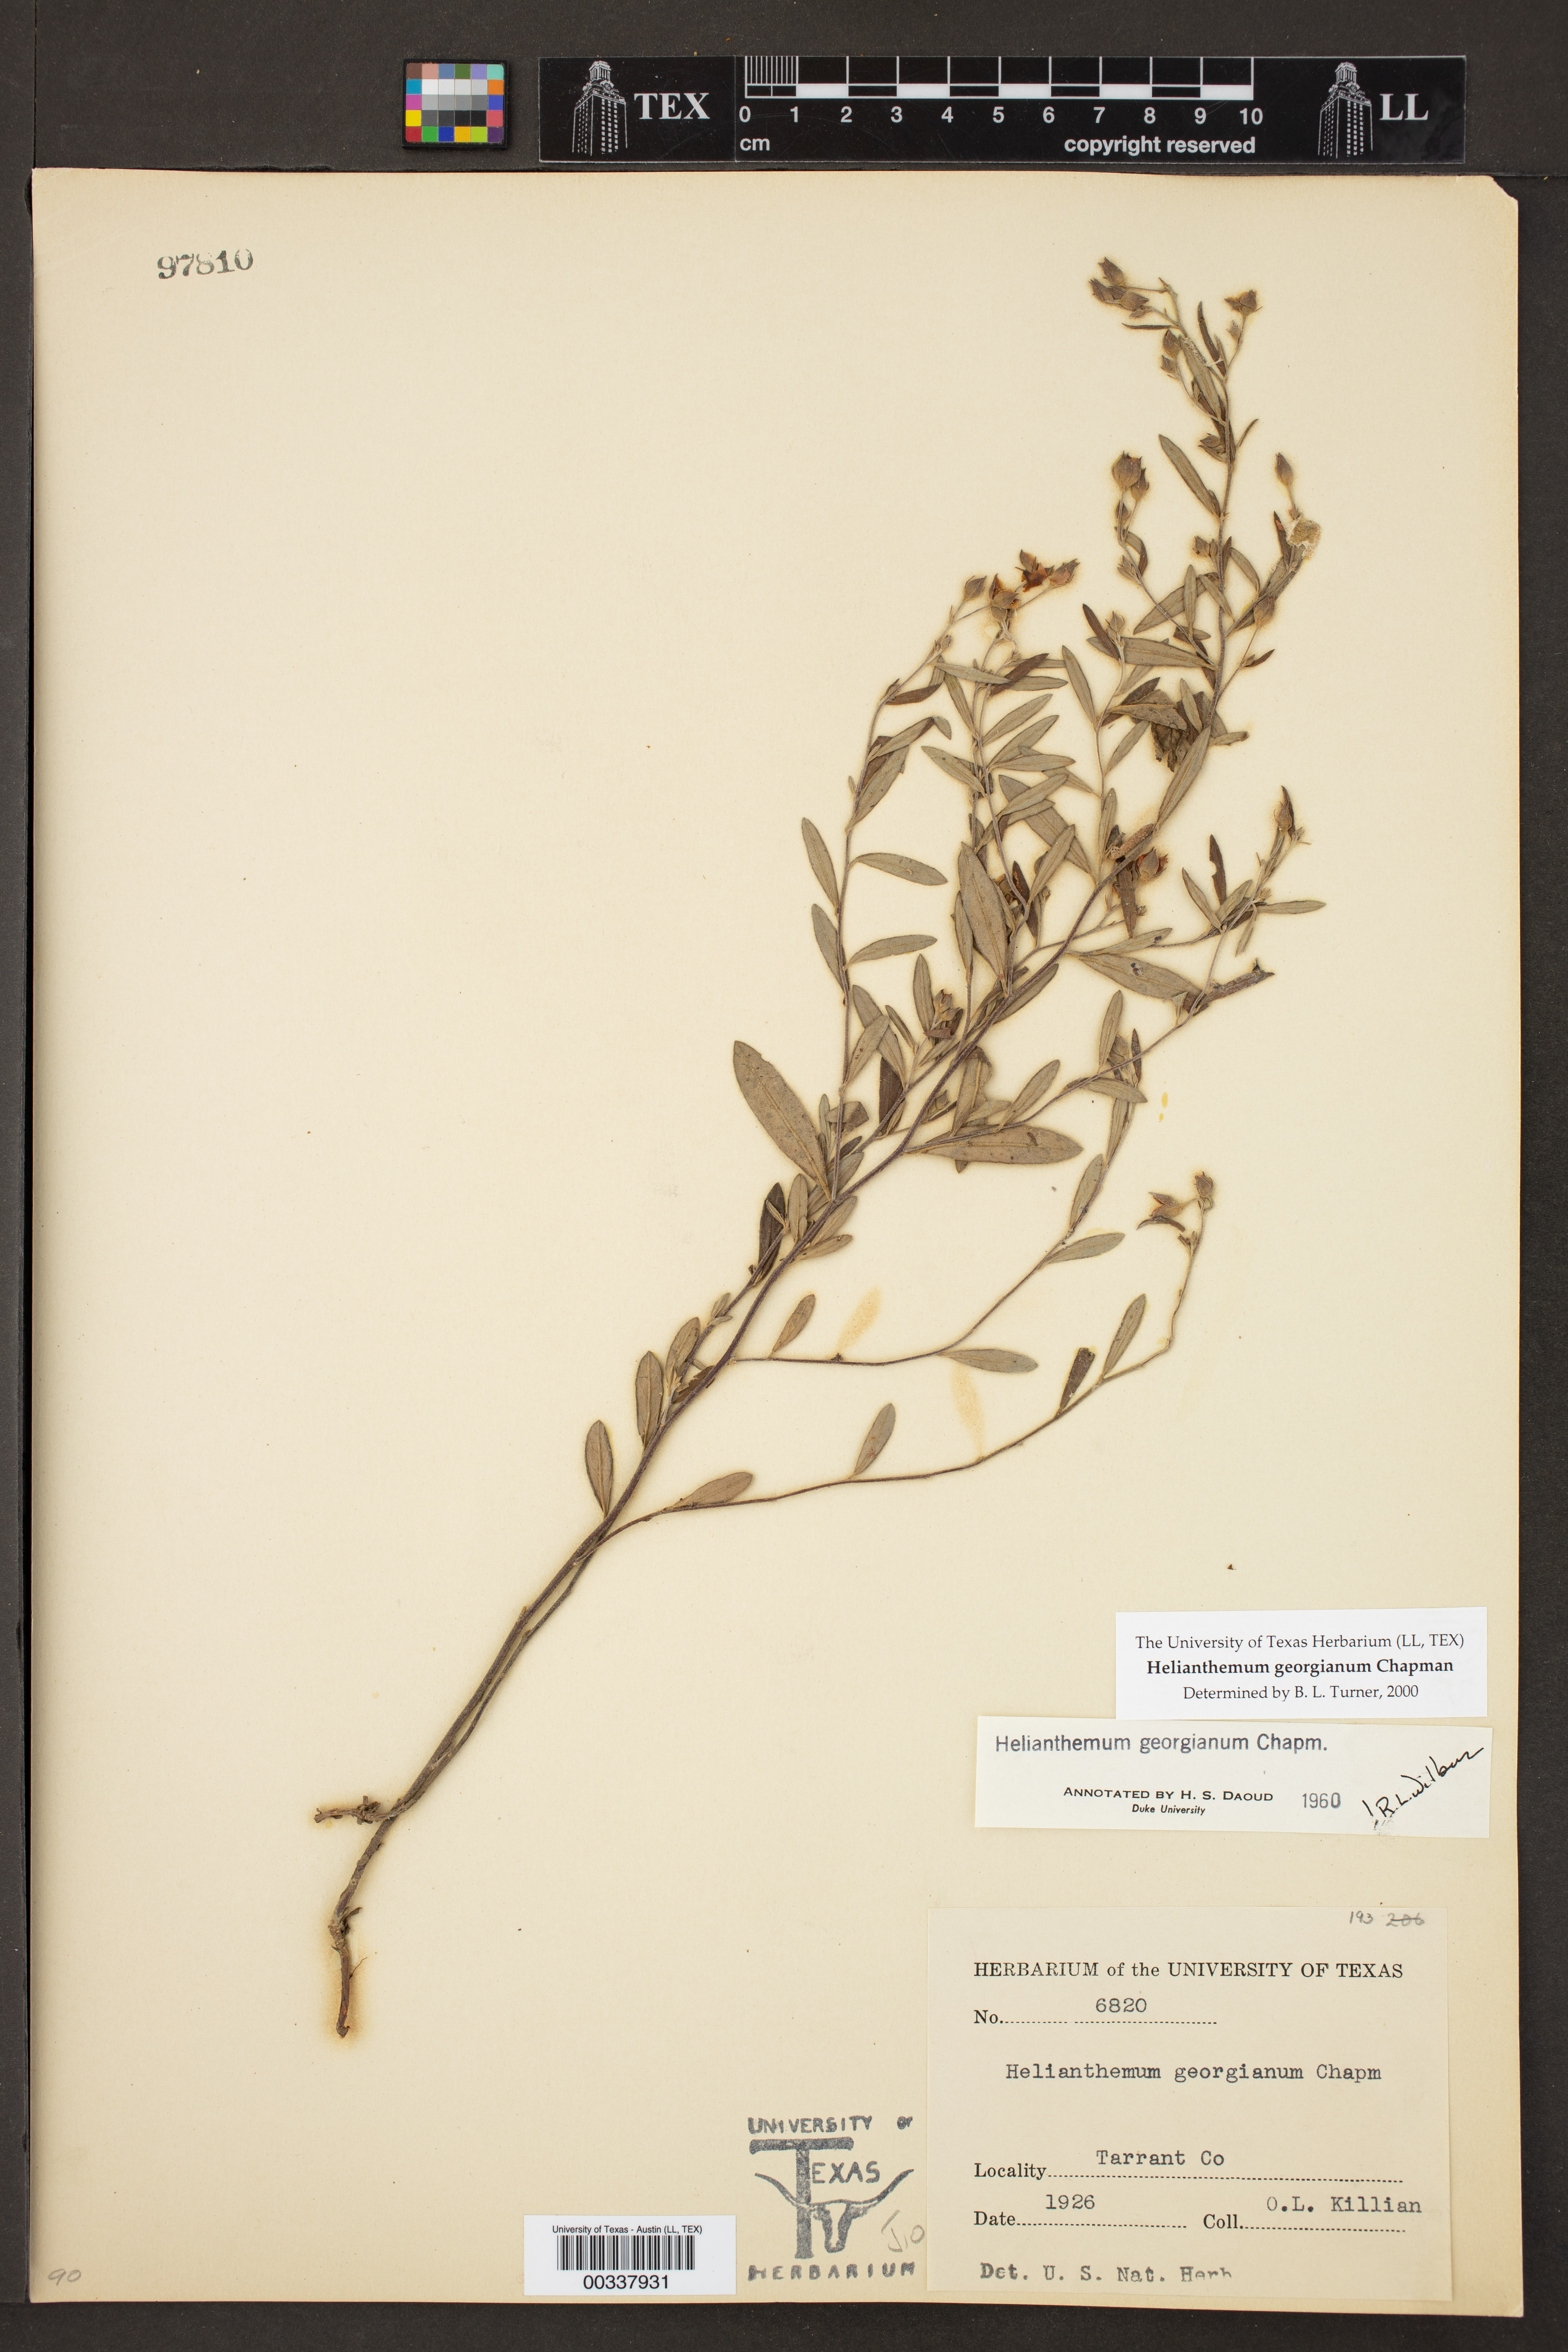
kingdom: Plantae
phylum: Tracheophyta
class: Magnoliopsida
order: Malvales
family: Cistaceae
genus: Crocanthemum
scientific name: Crocanthemum georgianum
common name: Georgia frostweed
